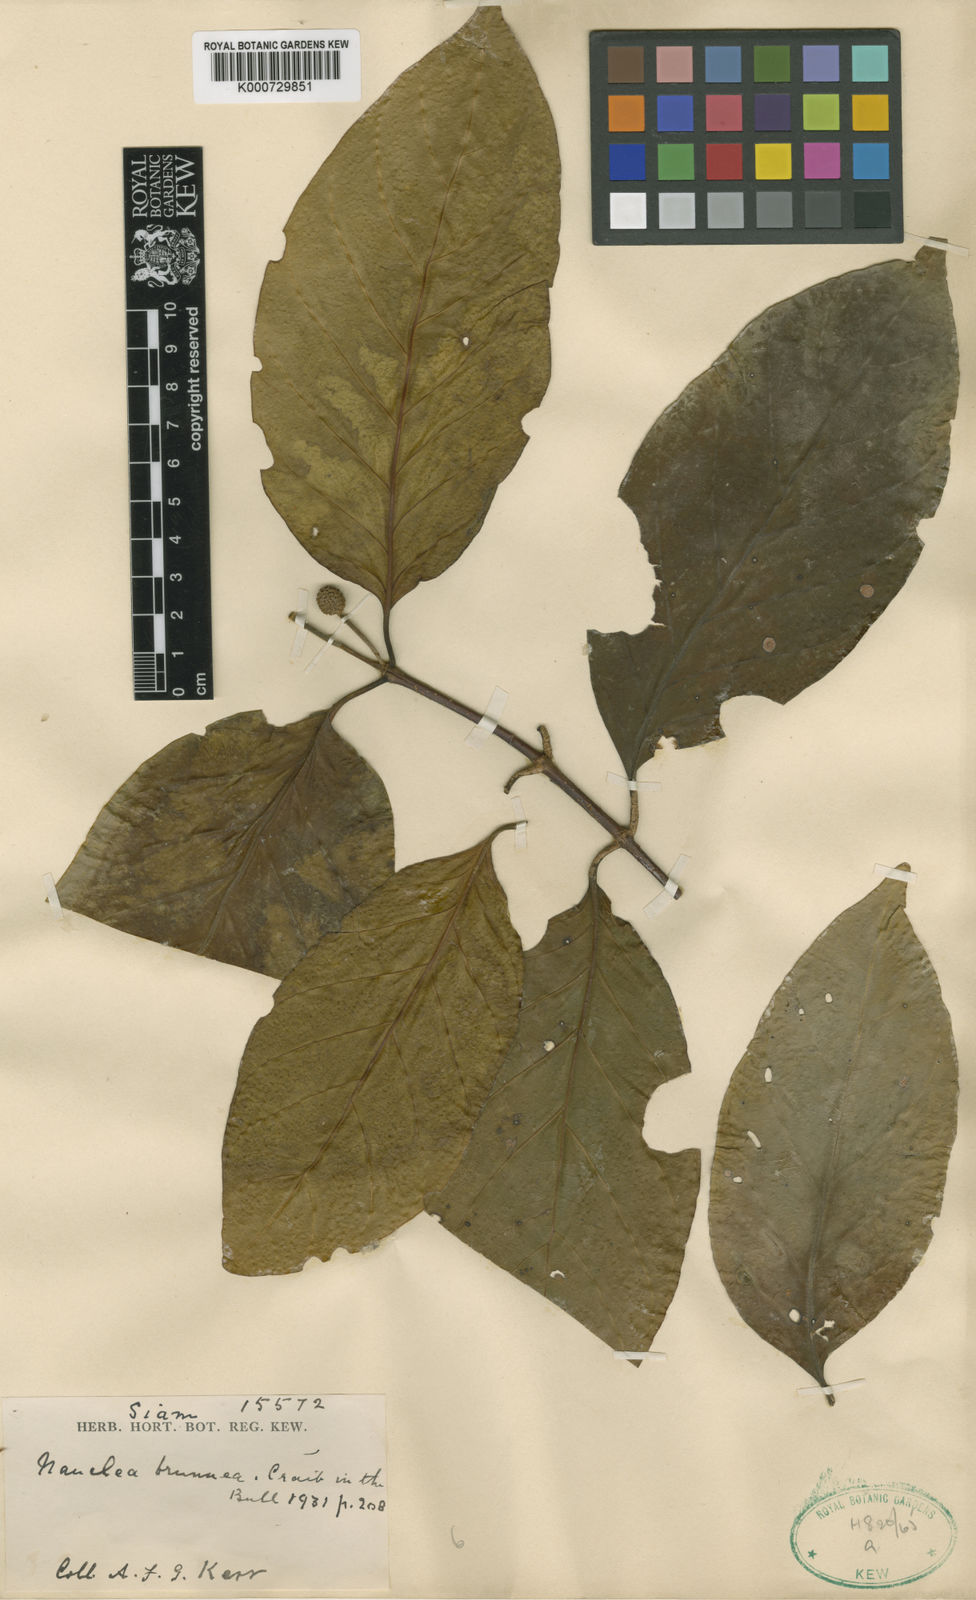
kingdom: Plantae
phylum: Tracheophyta
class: Magnoliopsida
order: Gentianales
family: Rubiaceae
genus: Nauclea
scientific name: Nauclea officinalis
